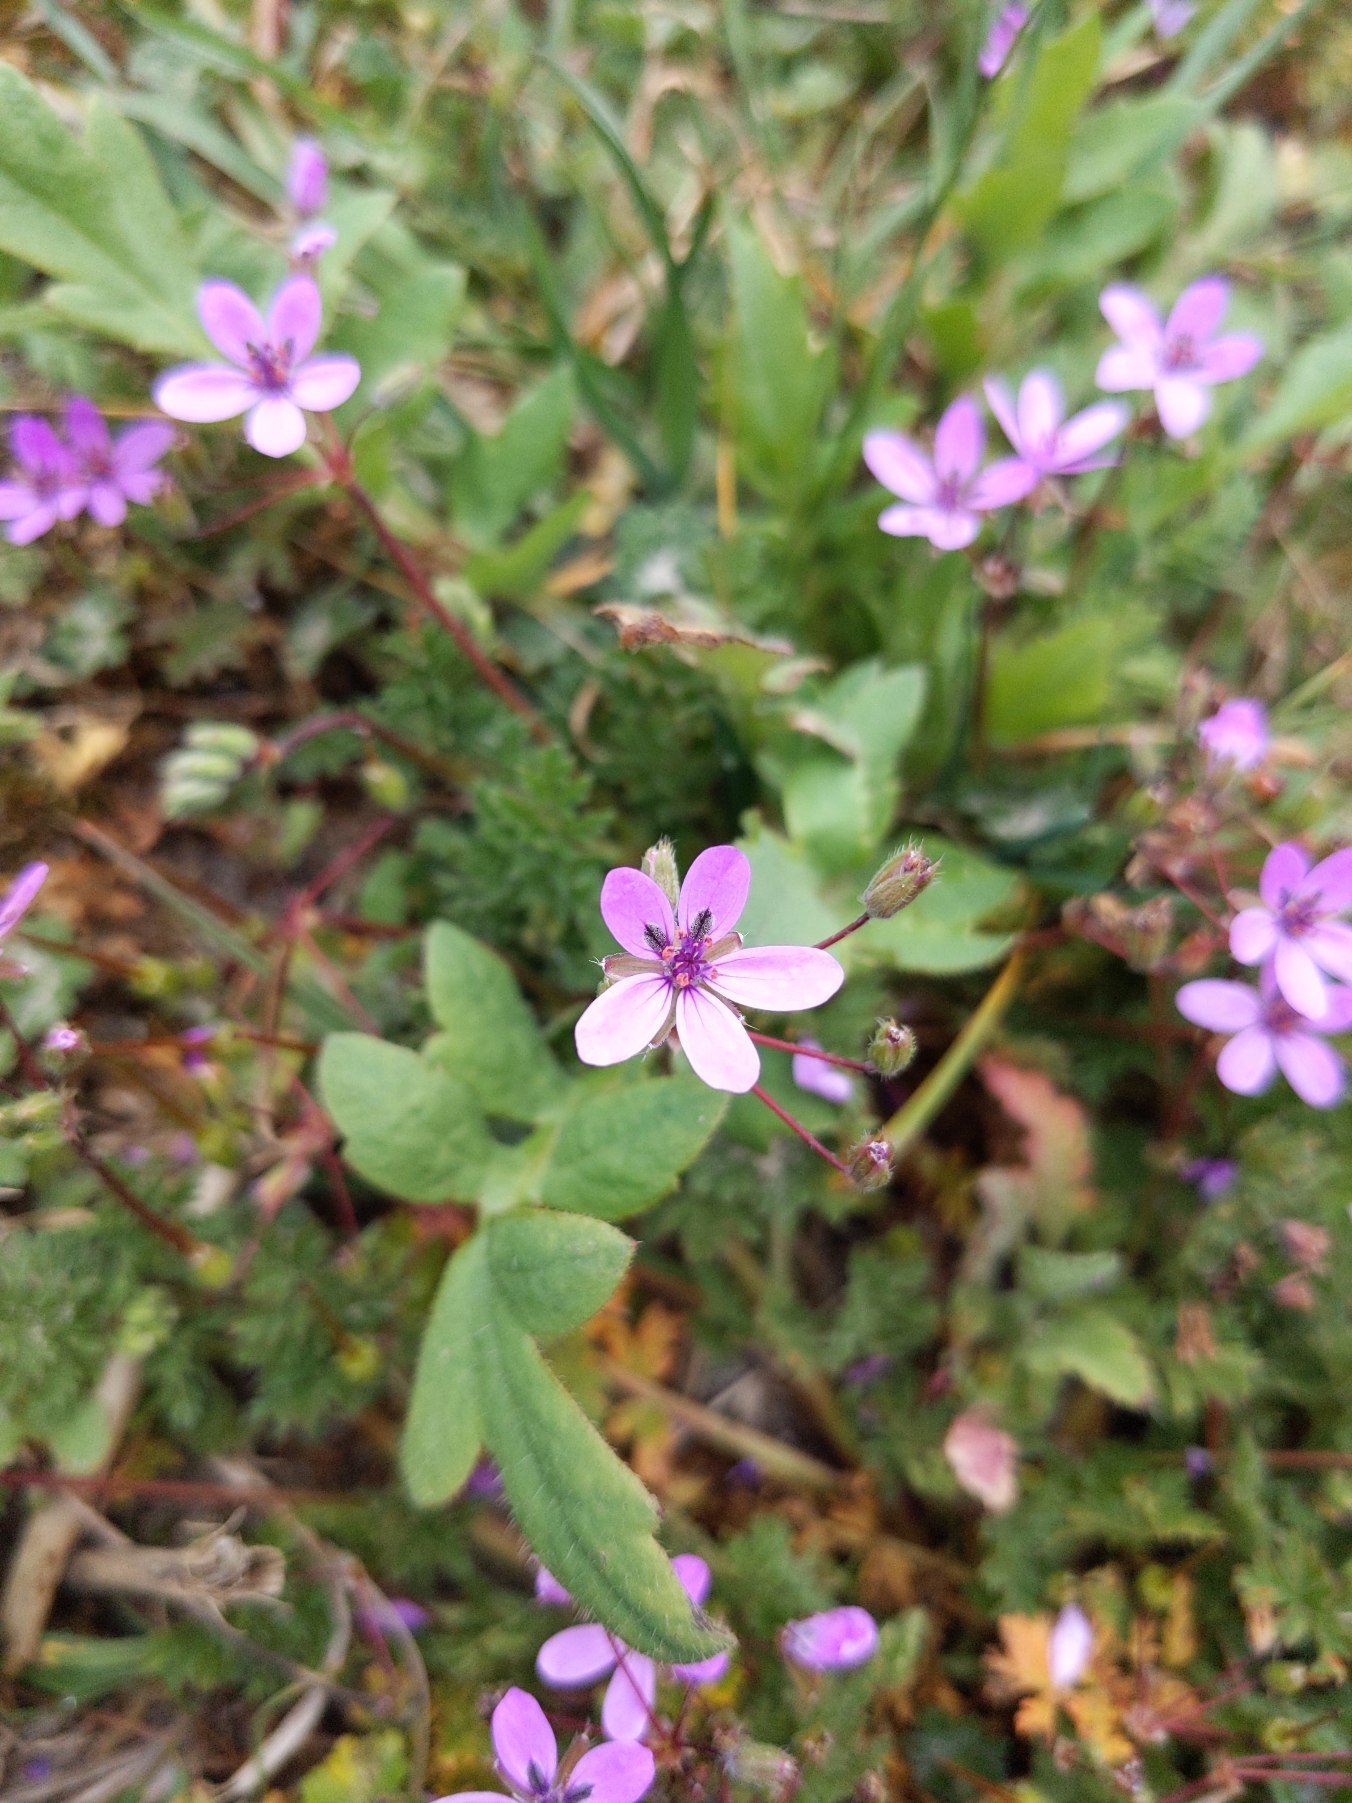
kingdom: Plantae
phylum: Tracheophyta
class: Magnoliopsida
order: Geraniales
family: Geraniaceae
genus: Erodium
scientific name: Erodium cicutarium
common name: Hejrenæb
